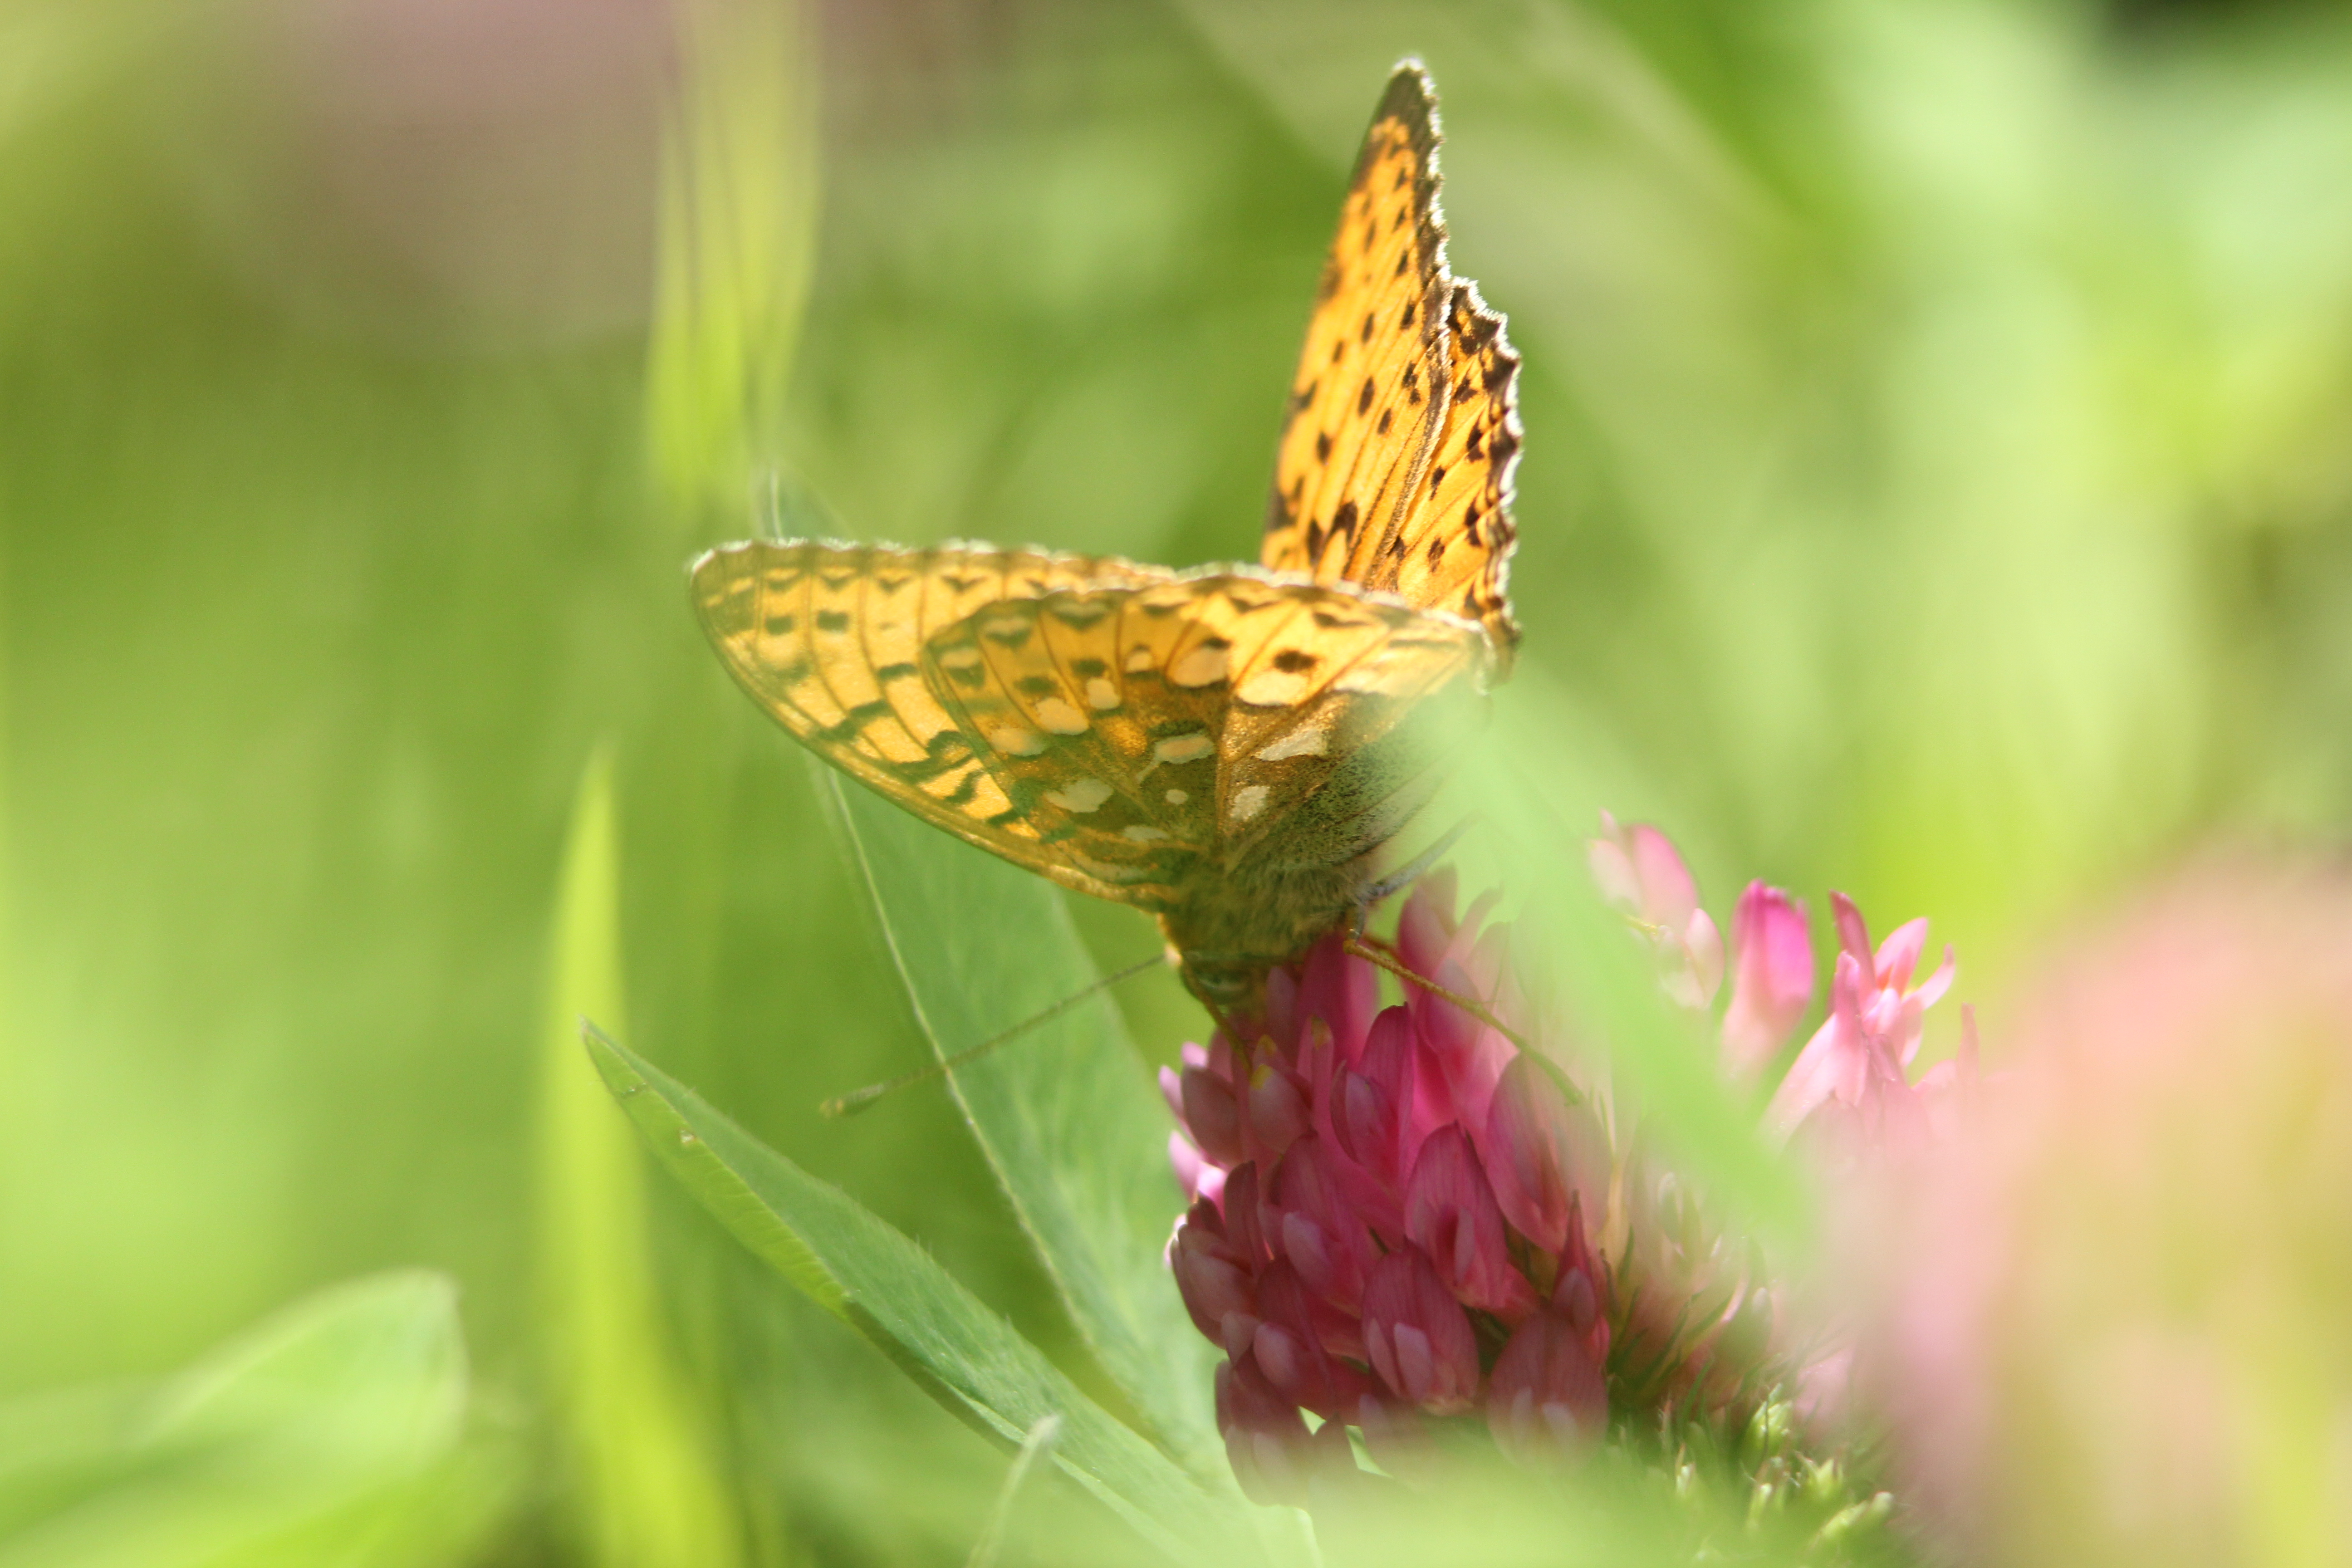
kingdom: Animalia
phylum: Arthropoda
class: Insecta
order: Lepidoptera
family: Nymphalidae
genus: Speyeria
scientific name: Speyeria aglaja
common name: Dark green fritillary
